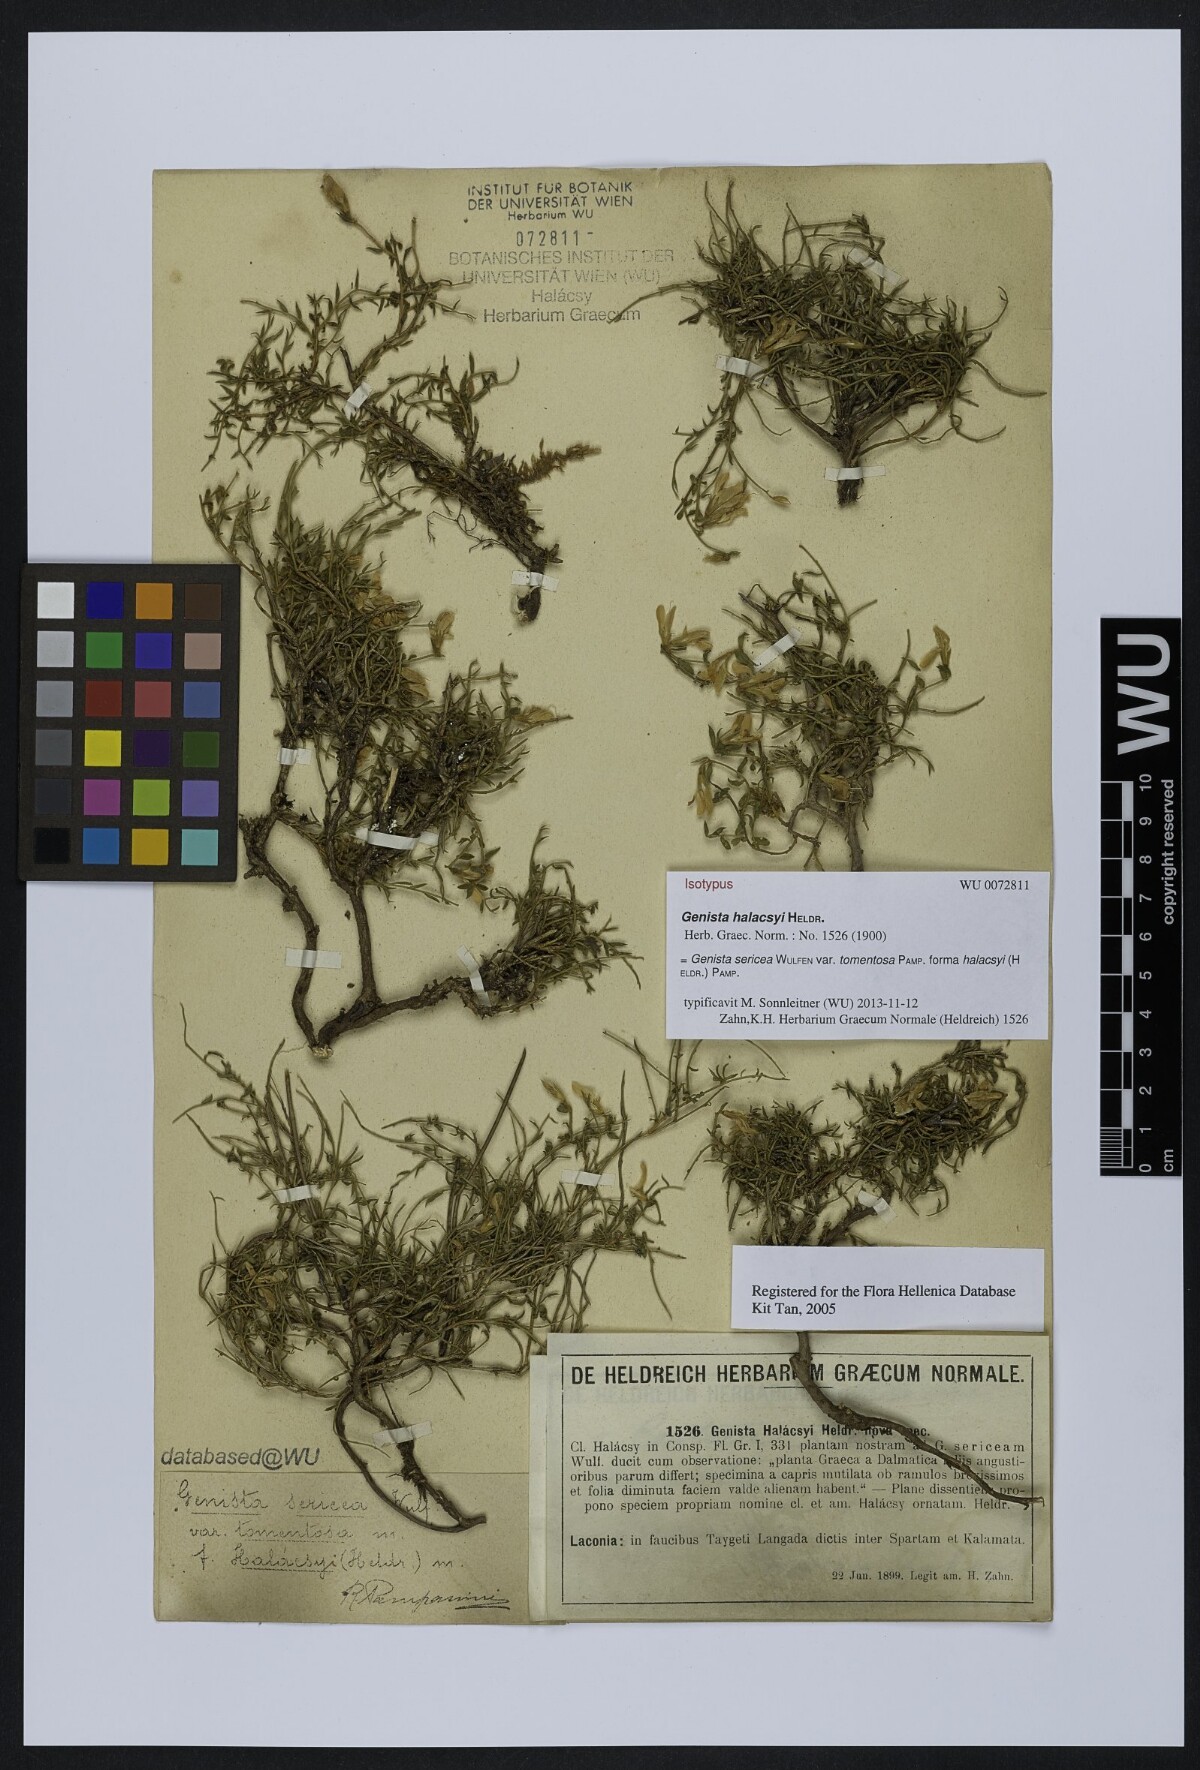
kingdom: Plantae
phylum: Tracheophyta
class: Magnoliopsida
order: Fabales
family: Fabaceae
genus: Genista
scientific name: Genista halacsyi
